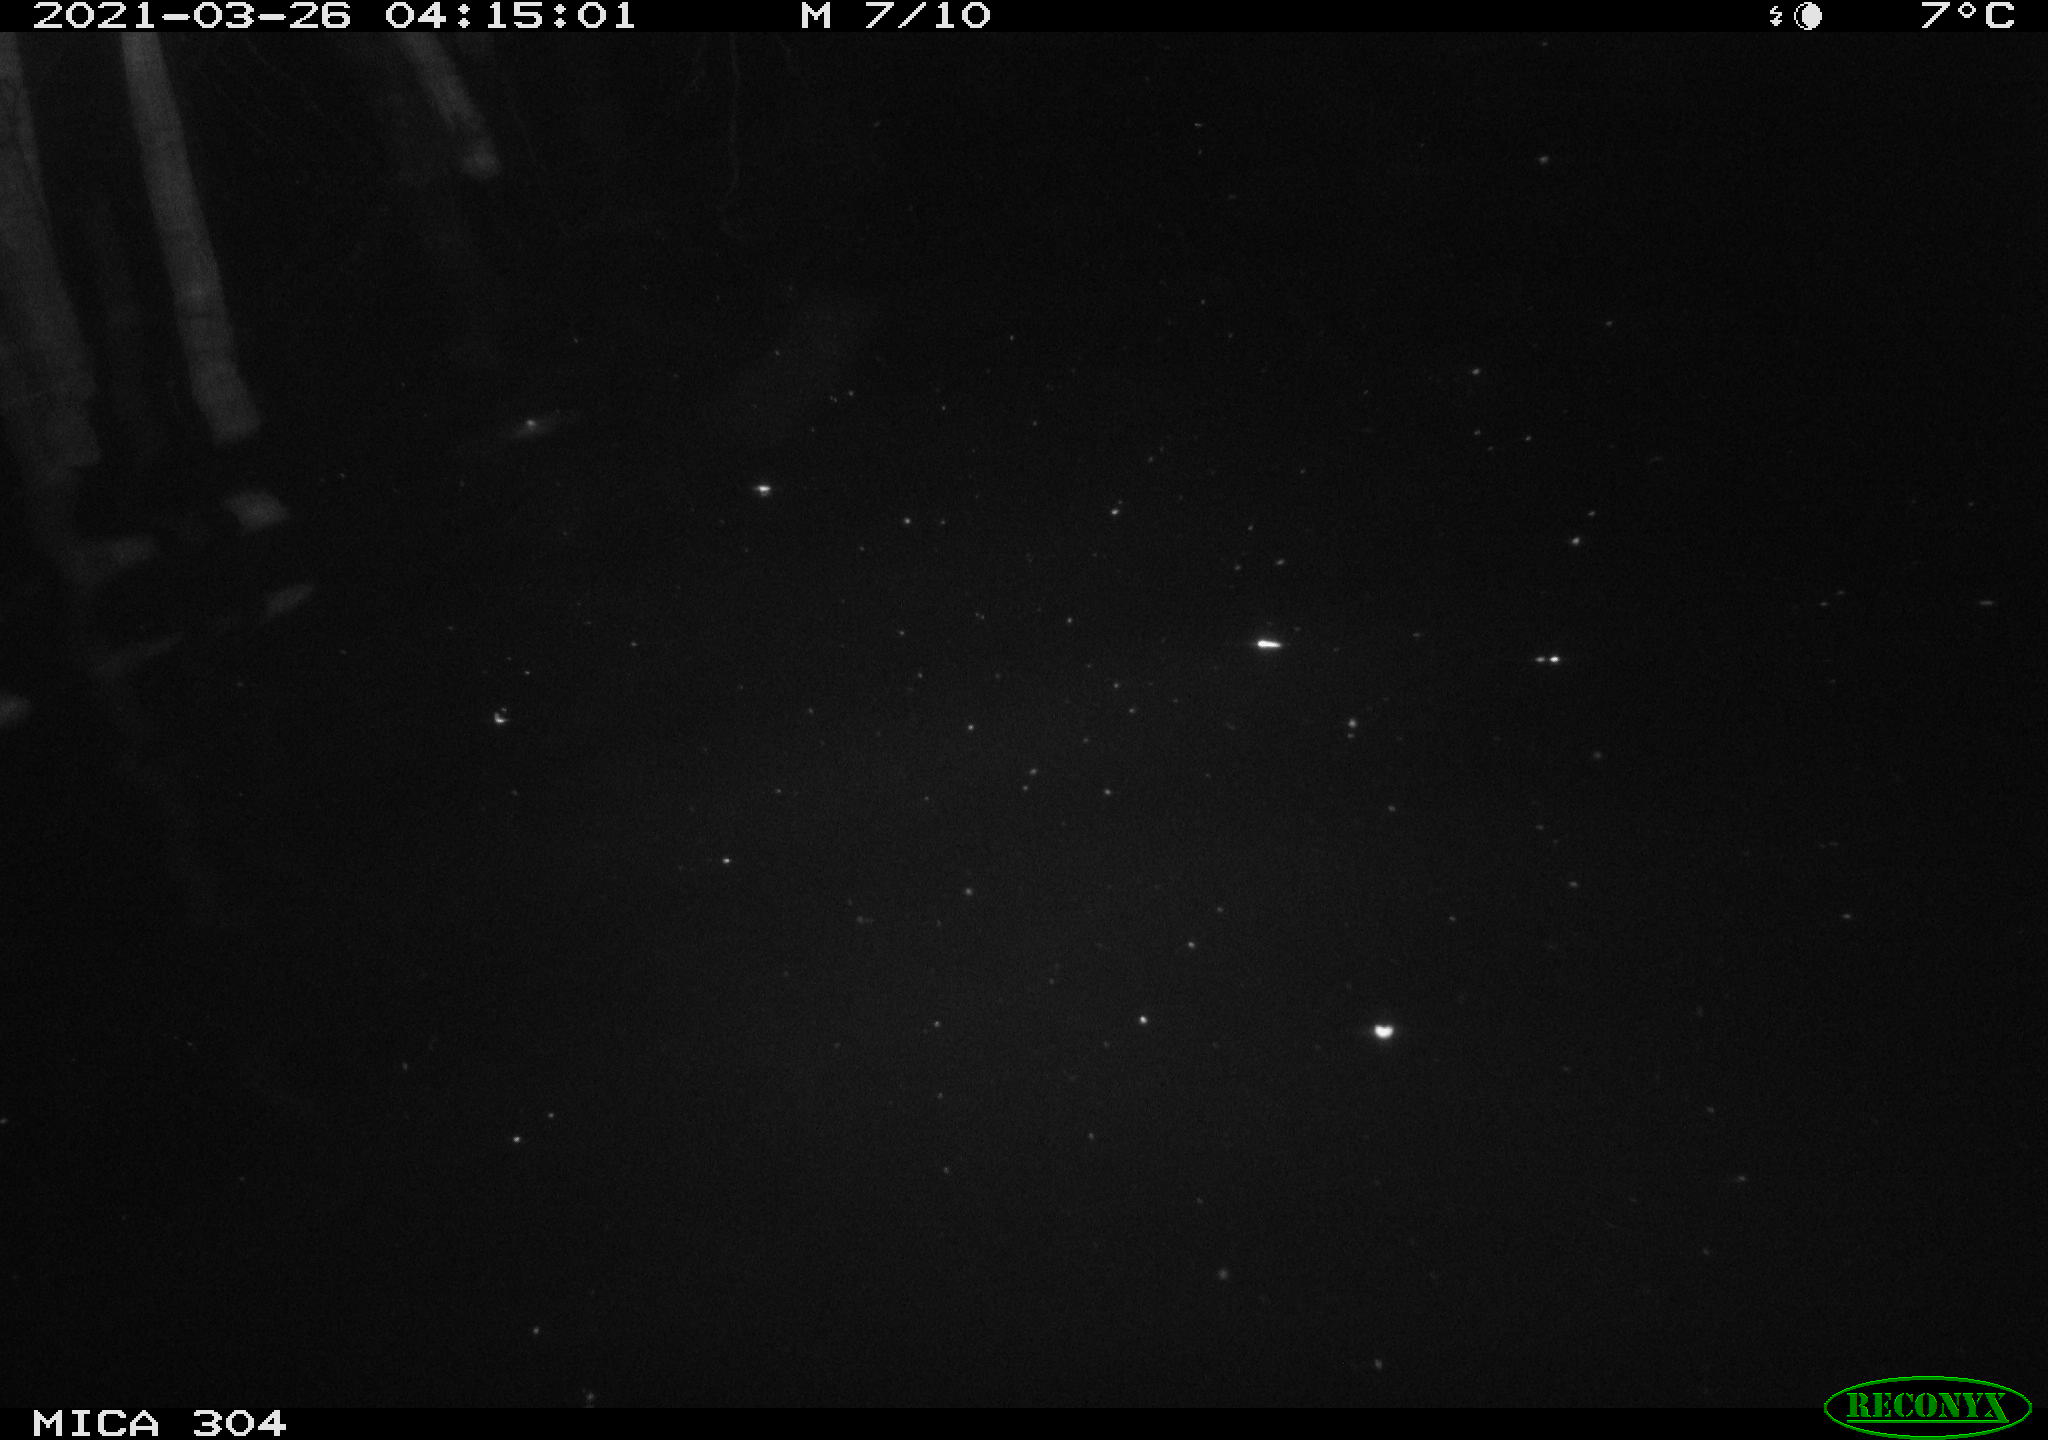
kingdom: Animalia
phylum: Chordata
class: Aves
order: Anseriformes
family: Anatidae
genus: Anas
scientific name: Anas platyrhynchos
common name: Mallard
